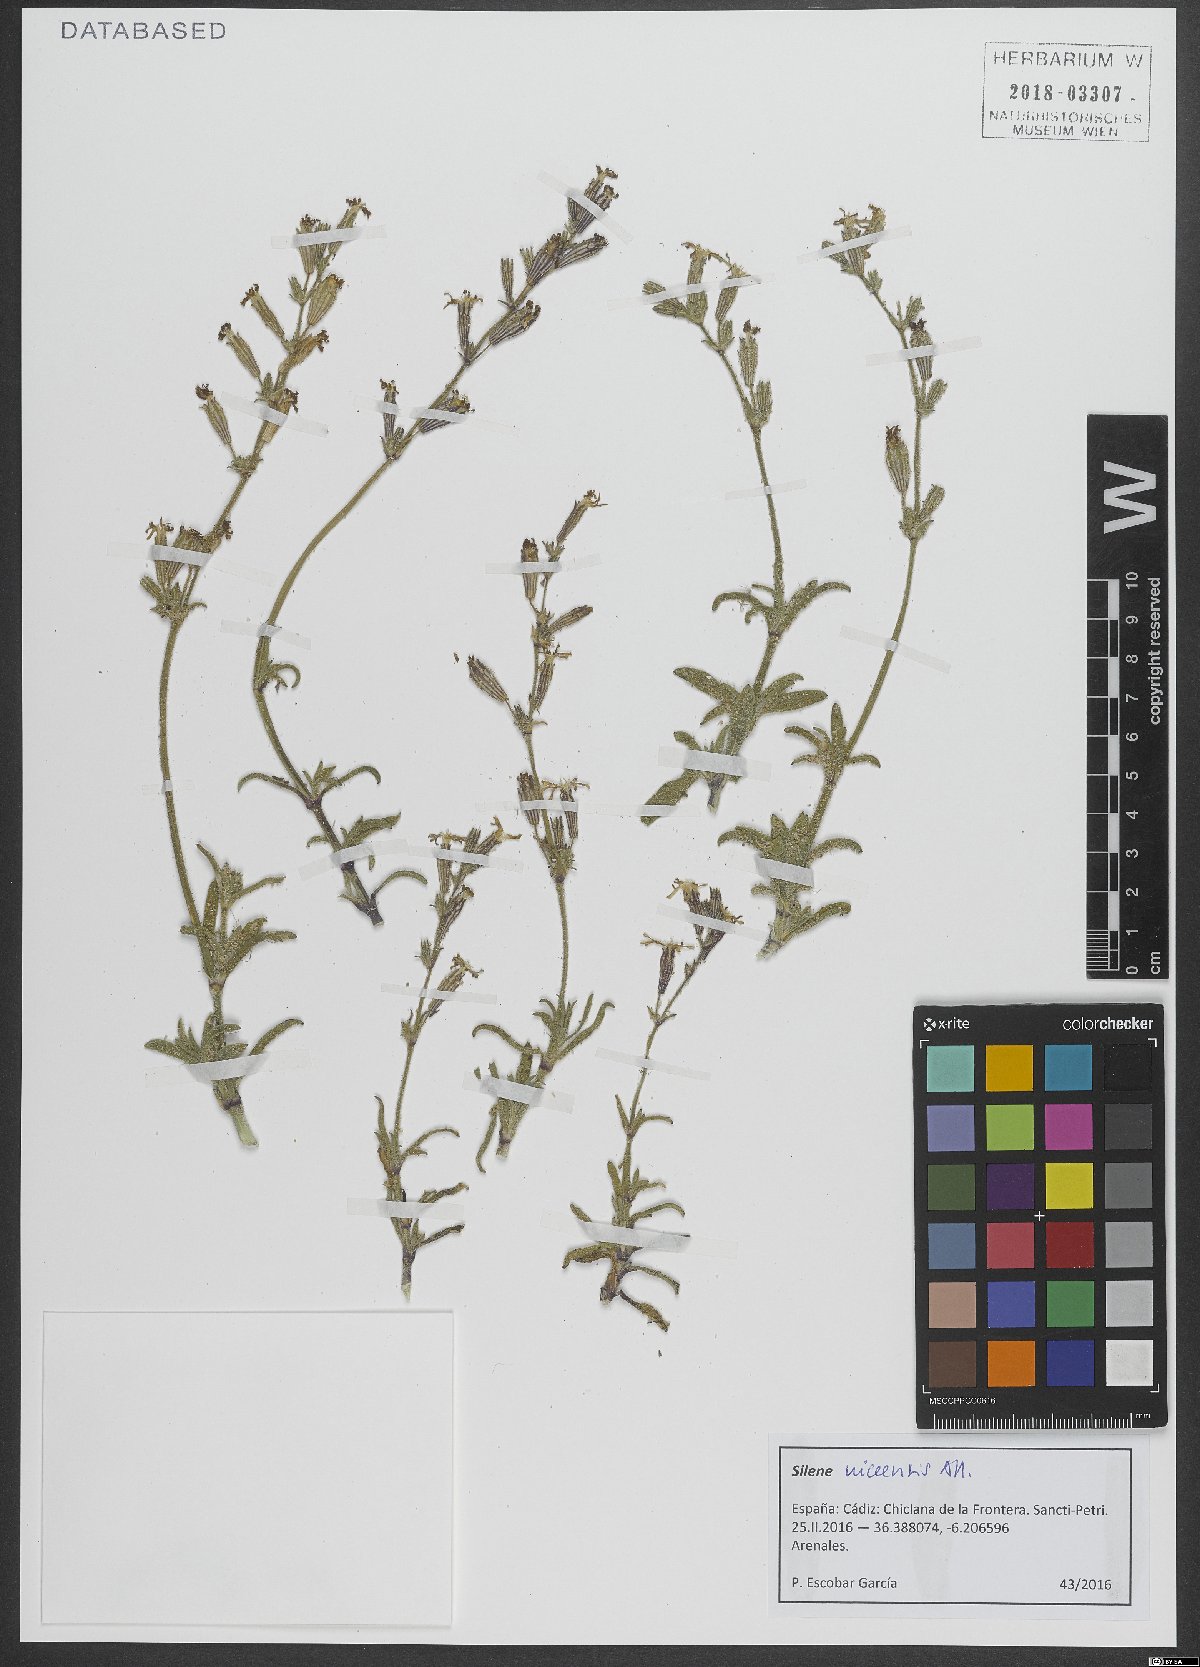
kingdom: Plantae
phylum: Tracheophyta
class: Magnoliopsida
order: Caryophyllales
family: Caryophyllaceae
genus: Silene
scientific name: Silene nicaeensis
